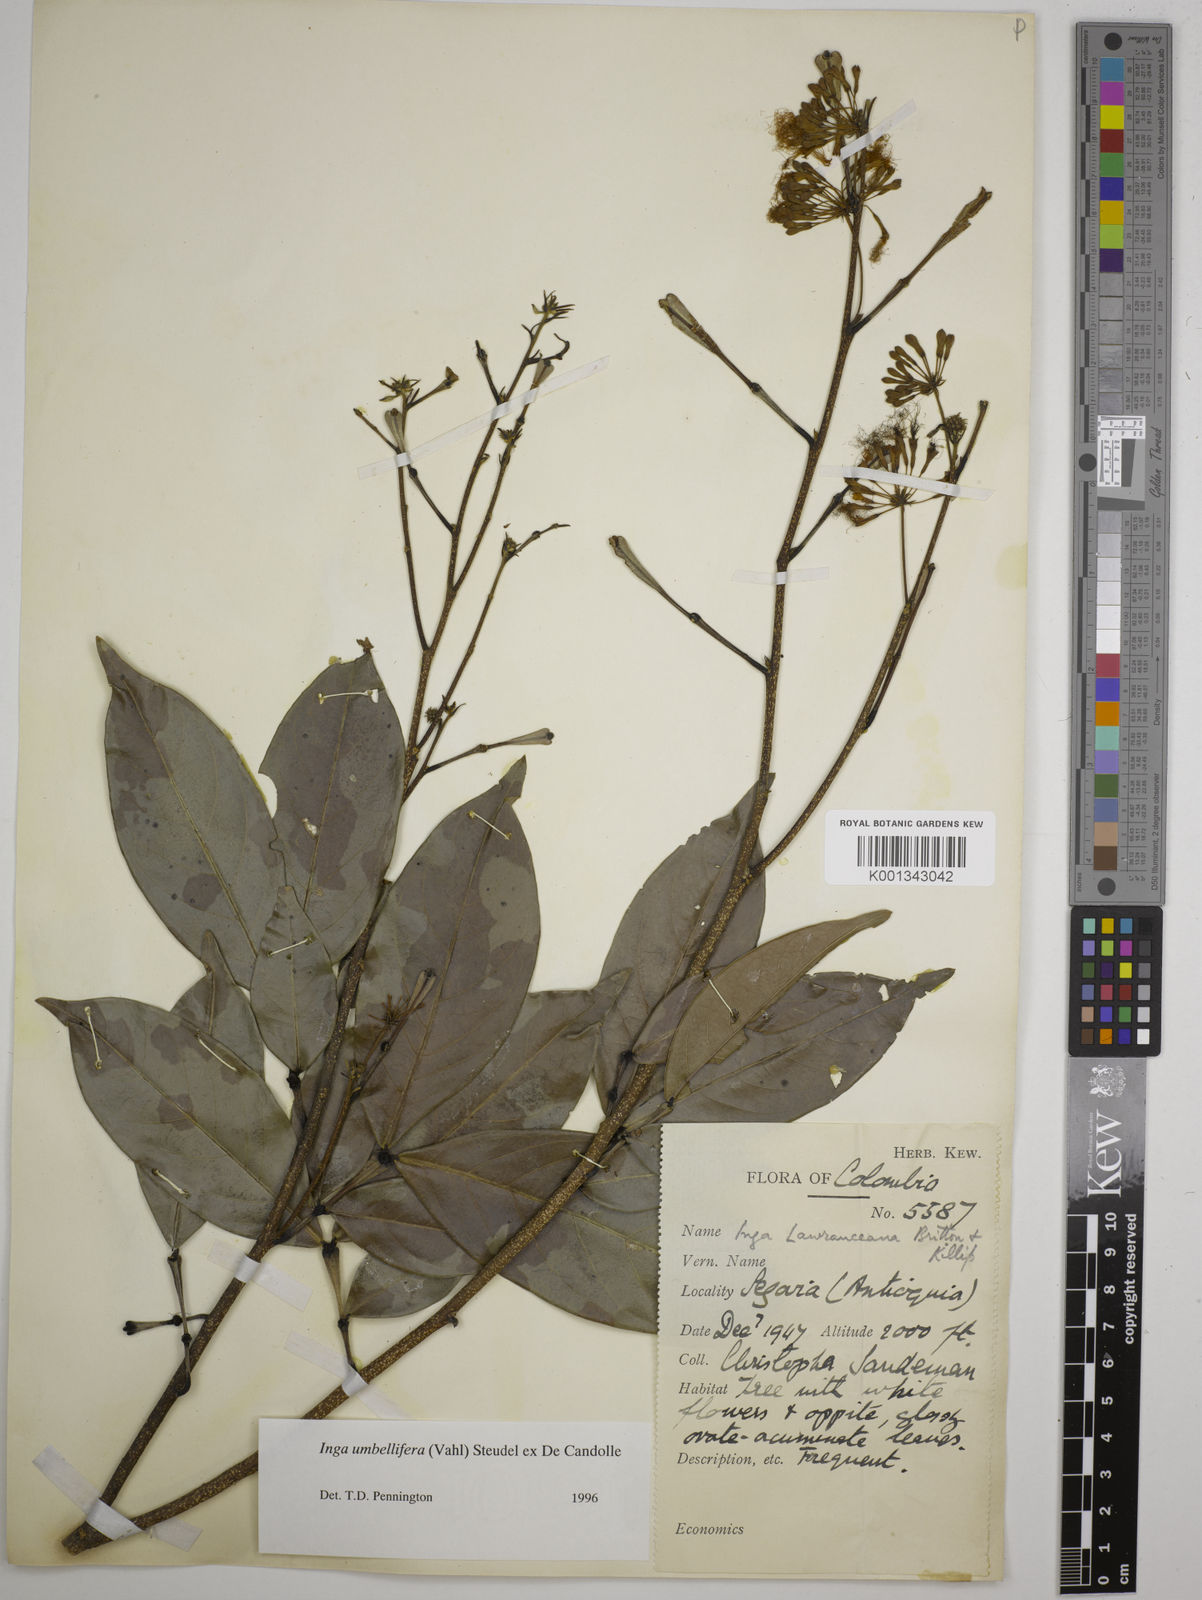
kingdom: Plantae
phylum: Tracheophyta
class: Magnoliopsida
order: Fabales
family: Fabaceae
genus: Inga
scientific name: Inga umbellifera
